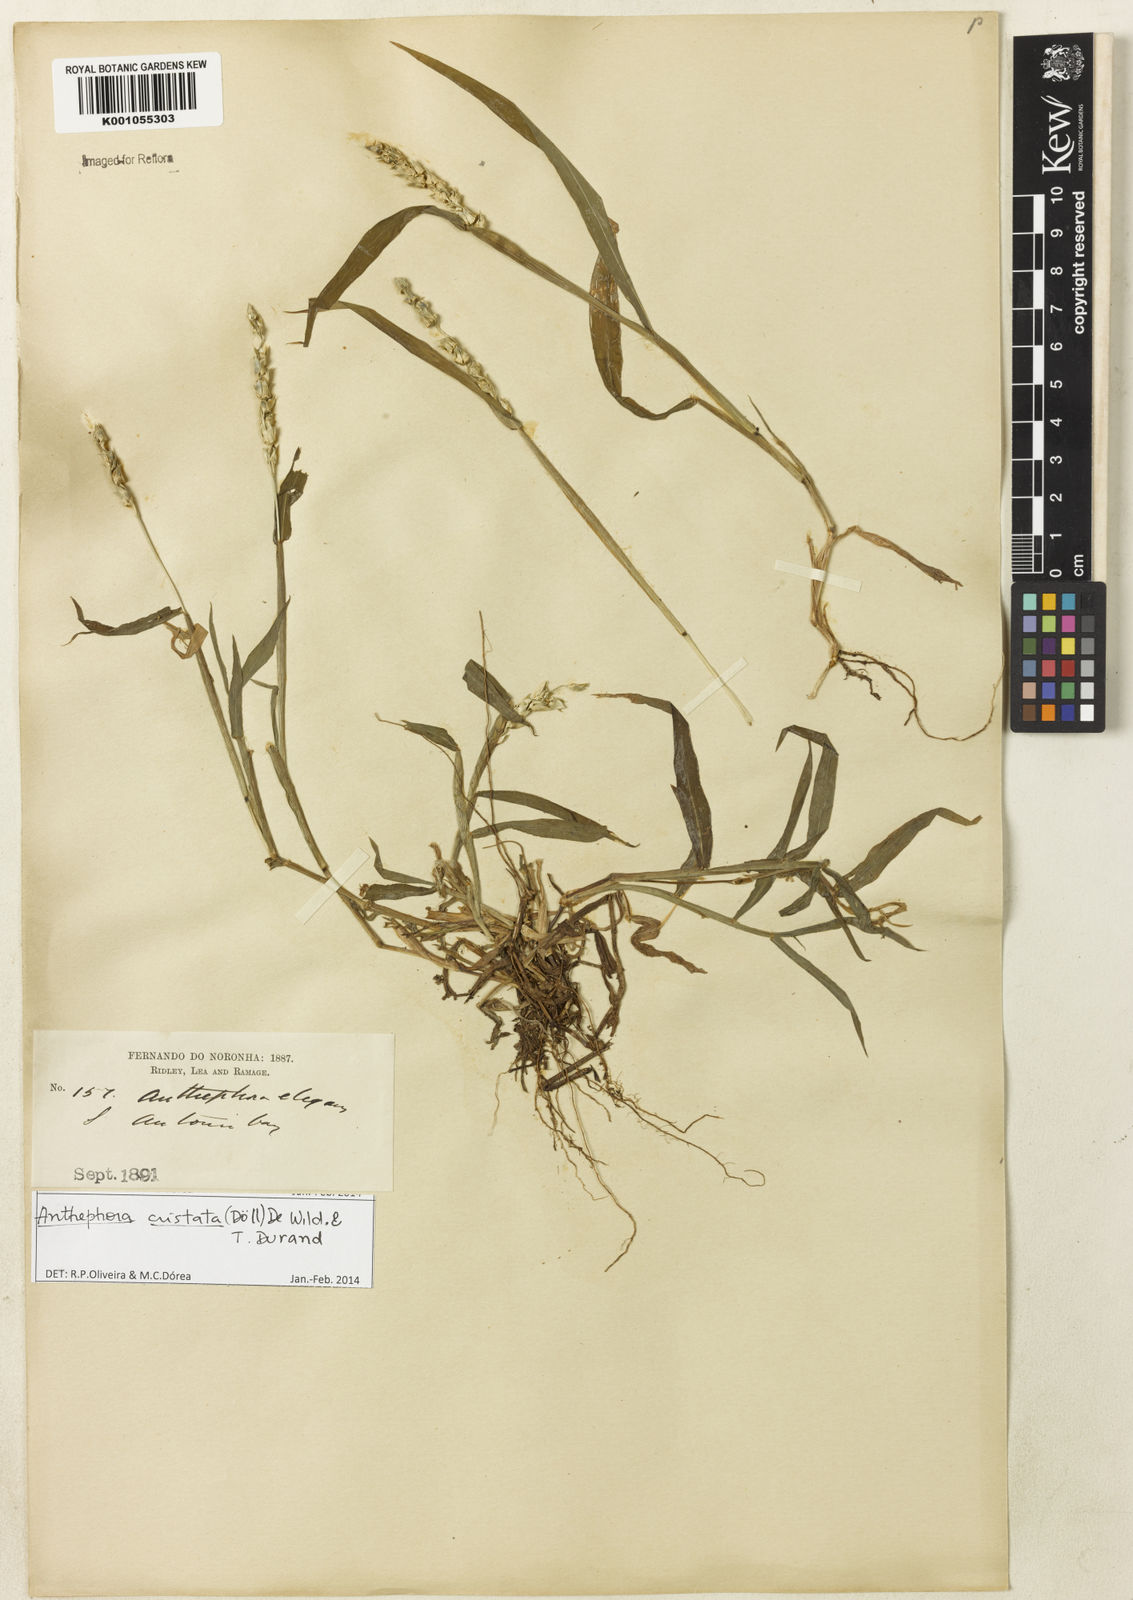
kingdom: Plantae
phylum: Tracheophyta
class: Liliopsida
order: Poales
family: Poaceae
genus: Anthephora
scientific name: Anthephora
